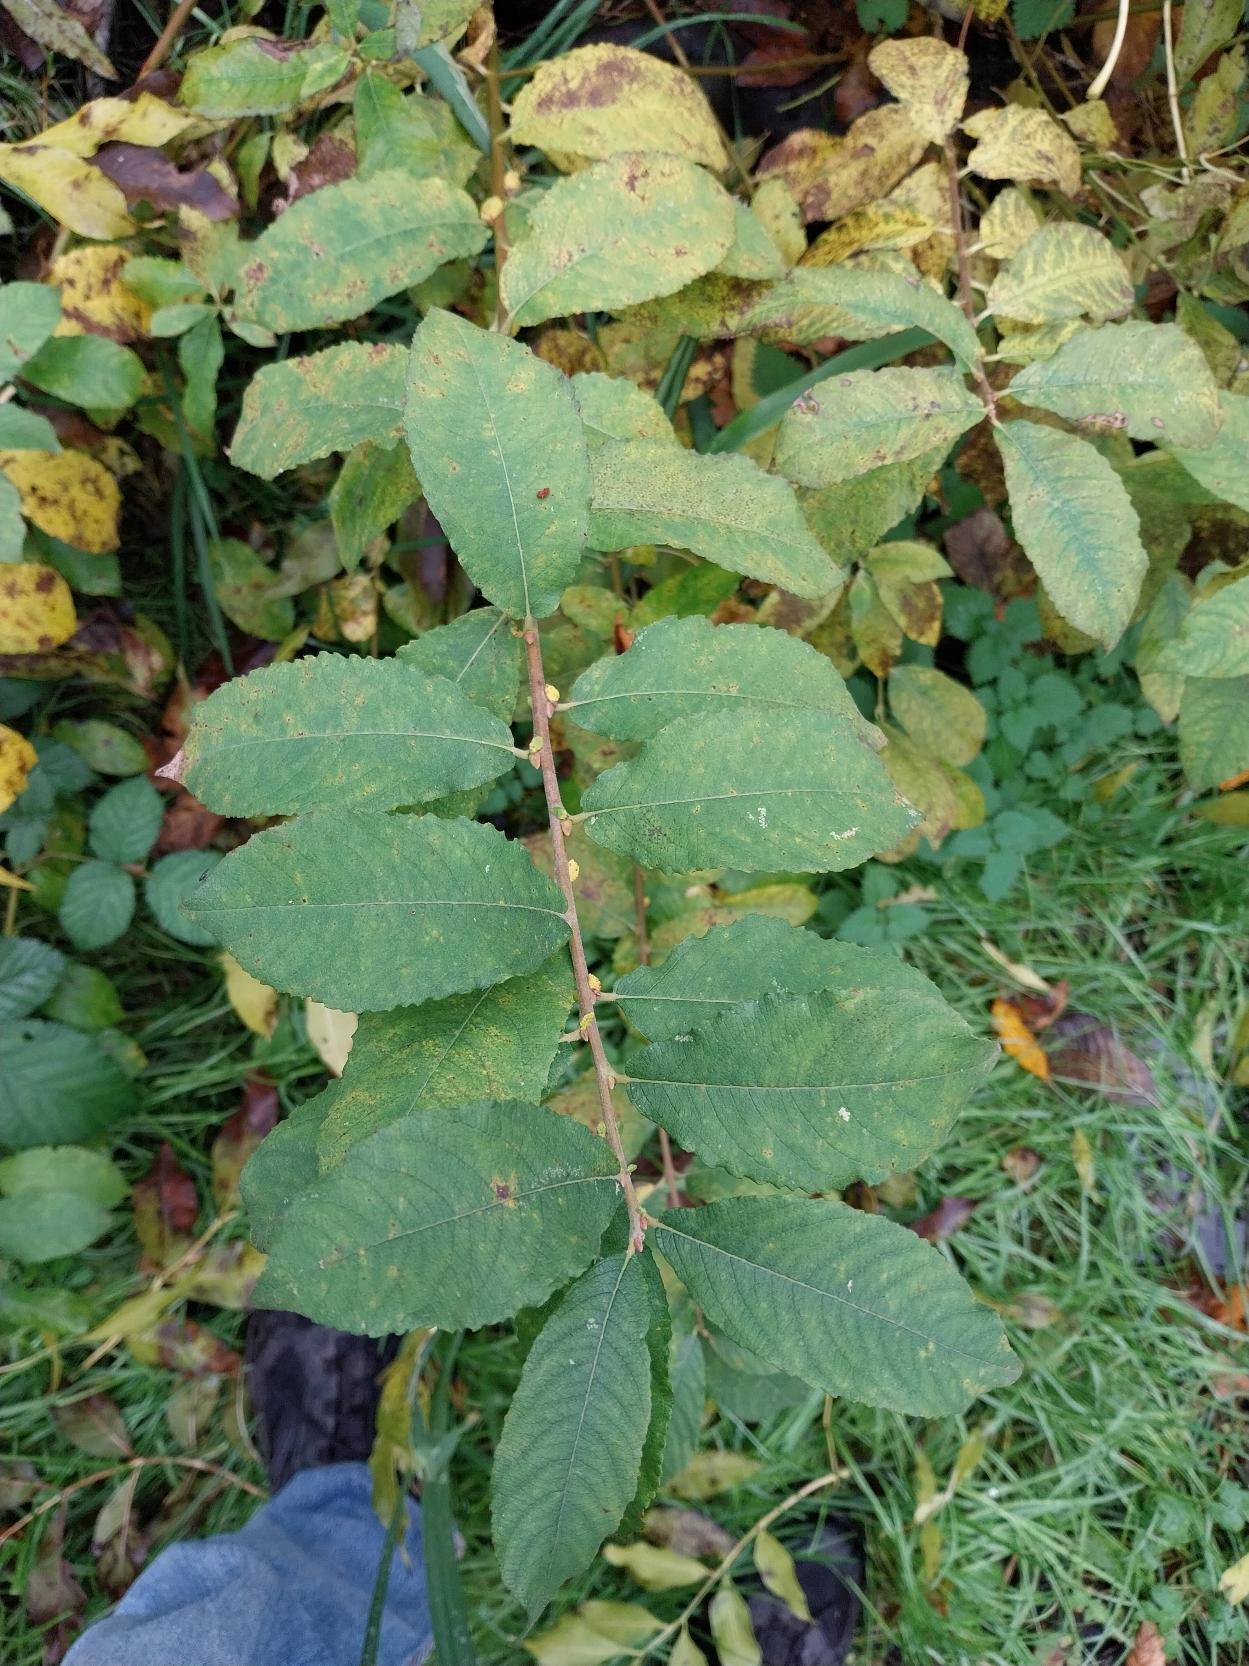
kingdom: Plantae
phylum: Tracheophyta
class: Magnoliopsida
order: Malpighiales
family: Salicaceae
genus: Salix
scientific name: Salix caprea
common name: Selje-pil
